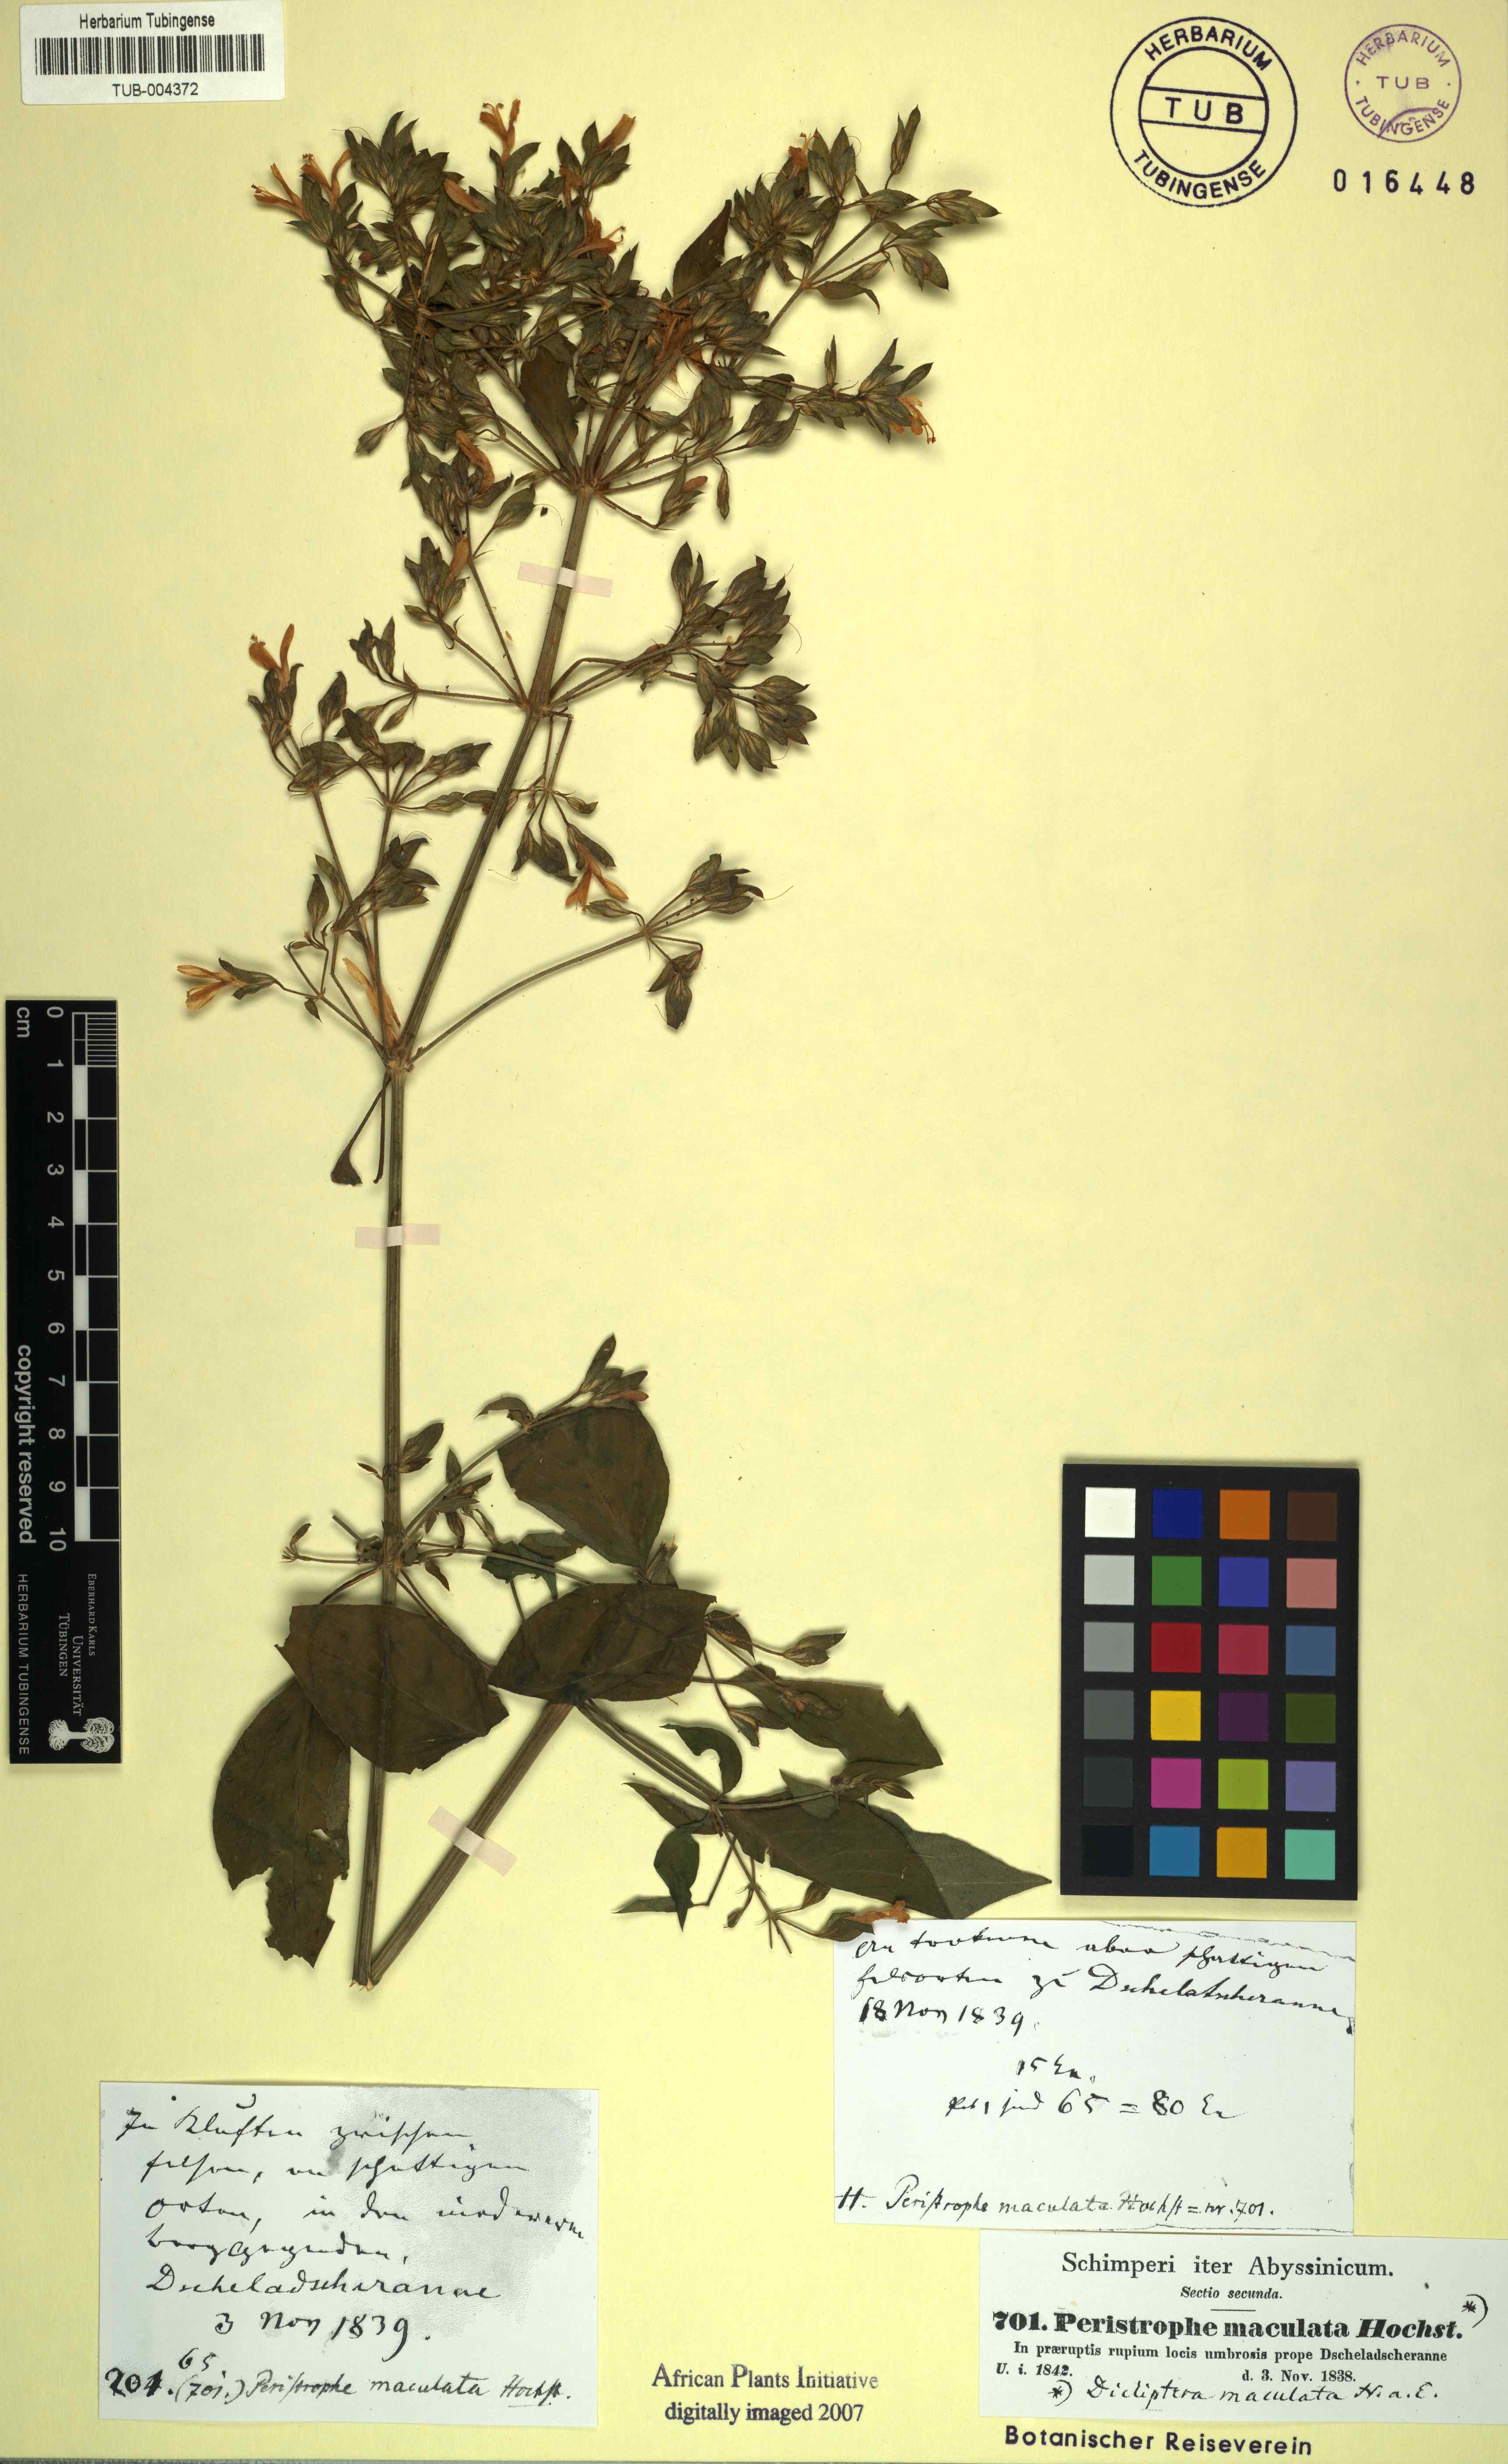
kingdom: Plantae
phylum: Tracheophyta
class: Magnoliopsida
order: Lamiales
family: Acanthaceae
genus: Dicliptera
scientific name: Dicliptera maculata
